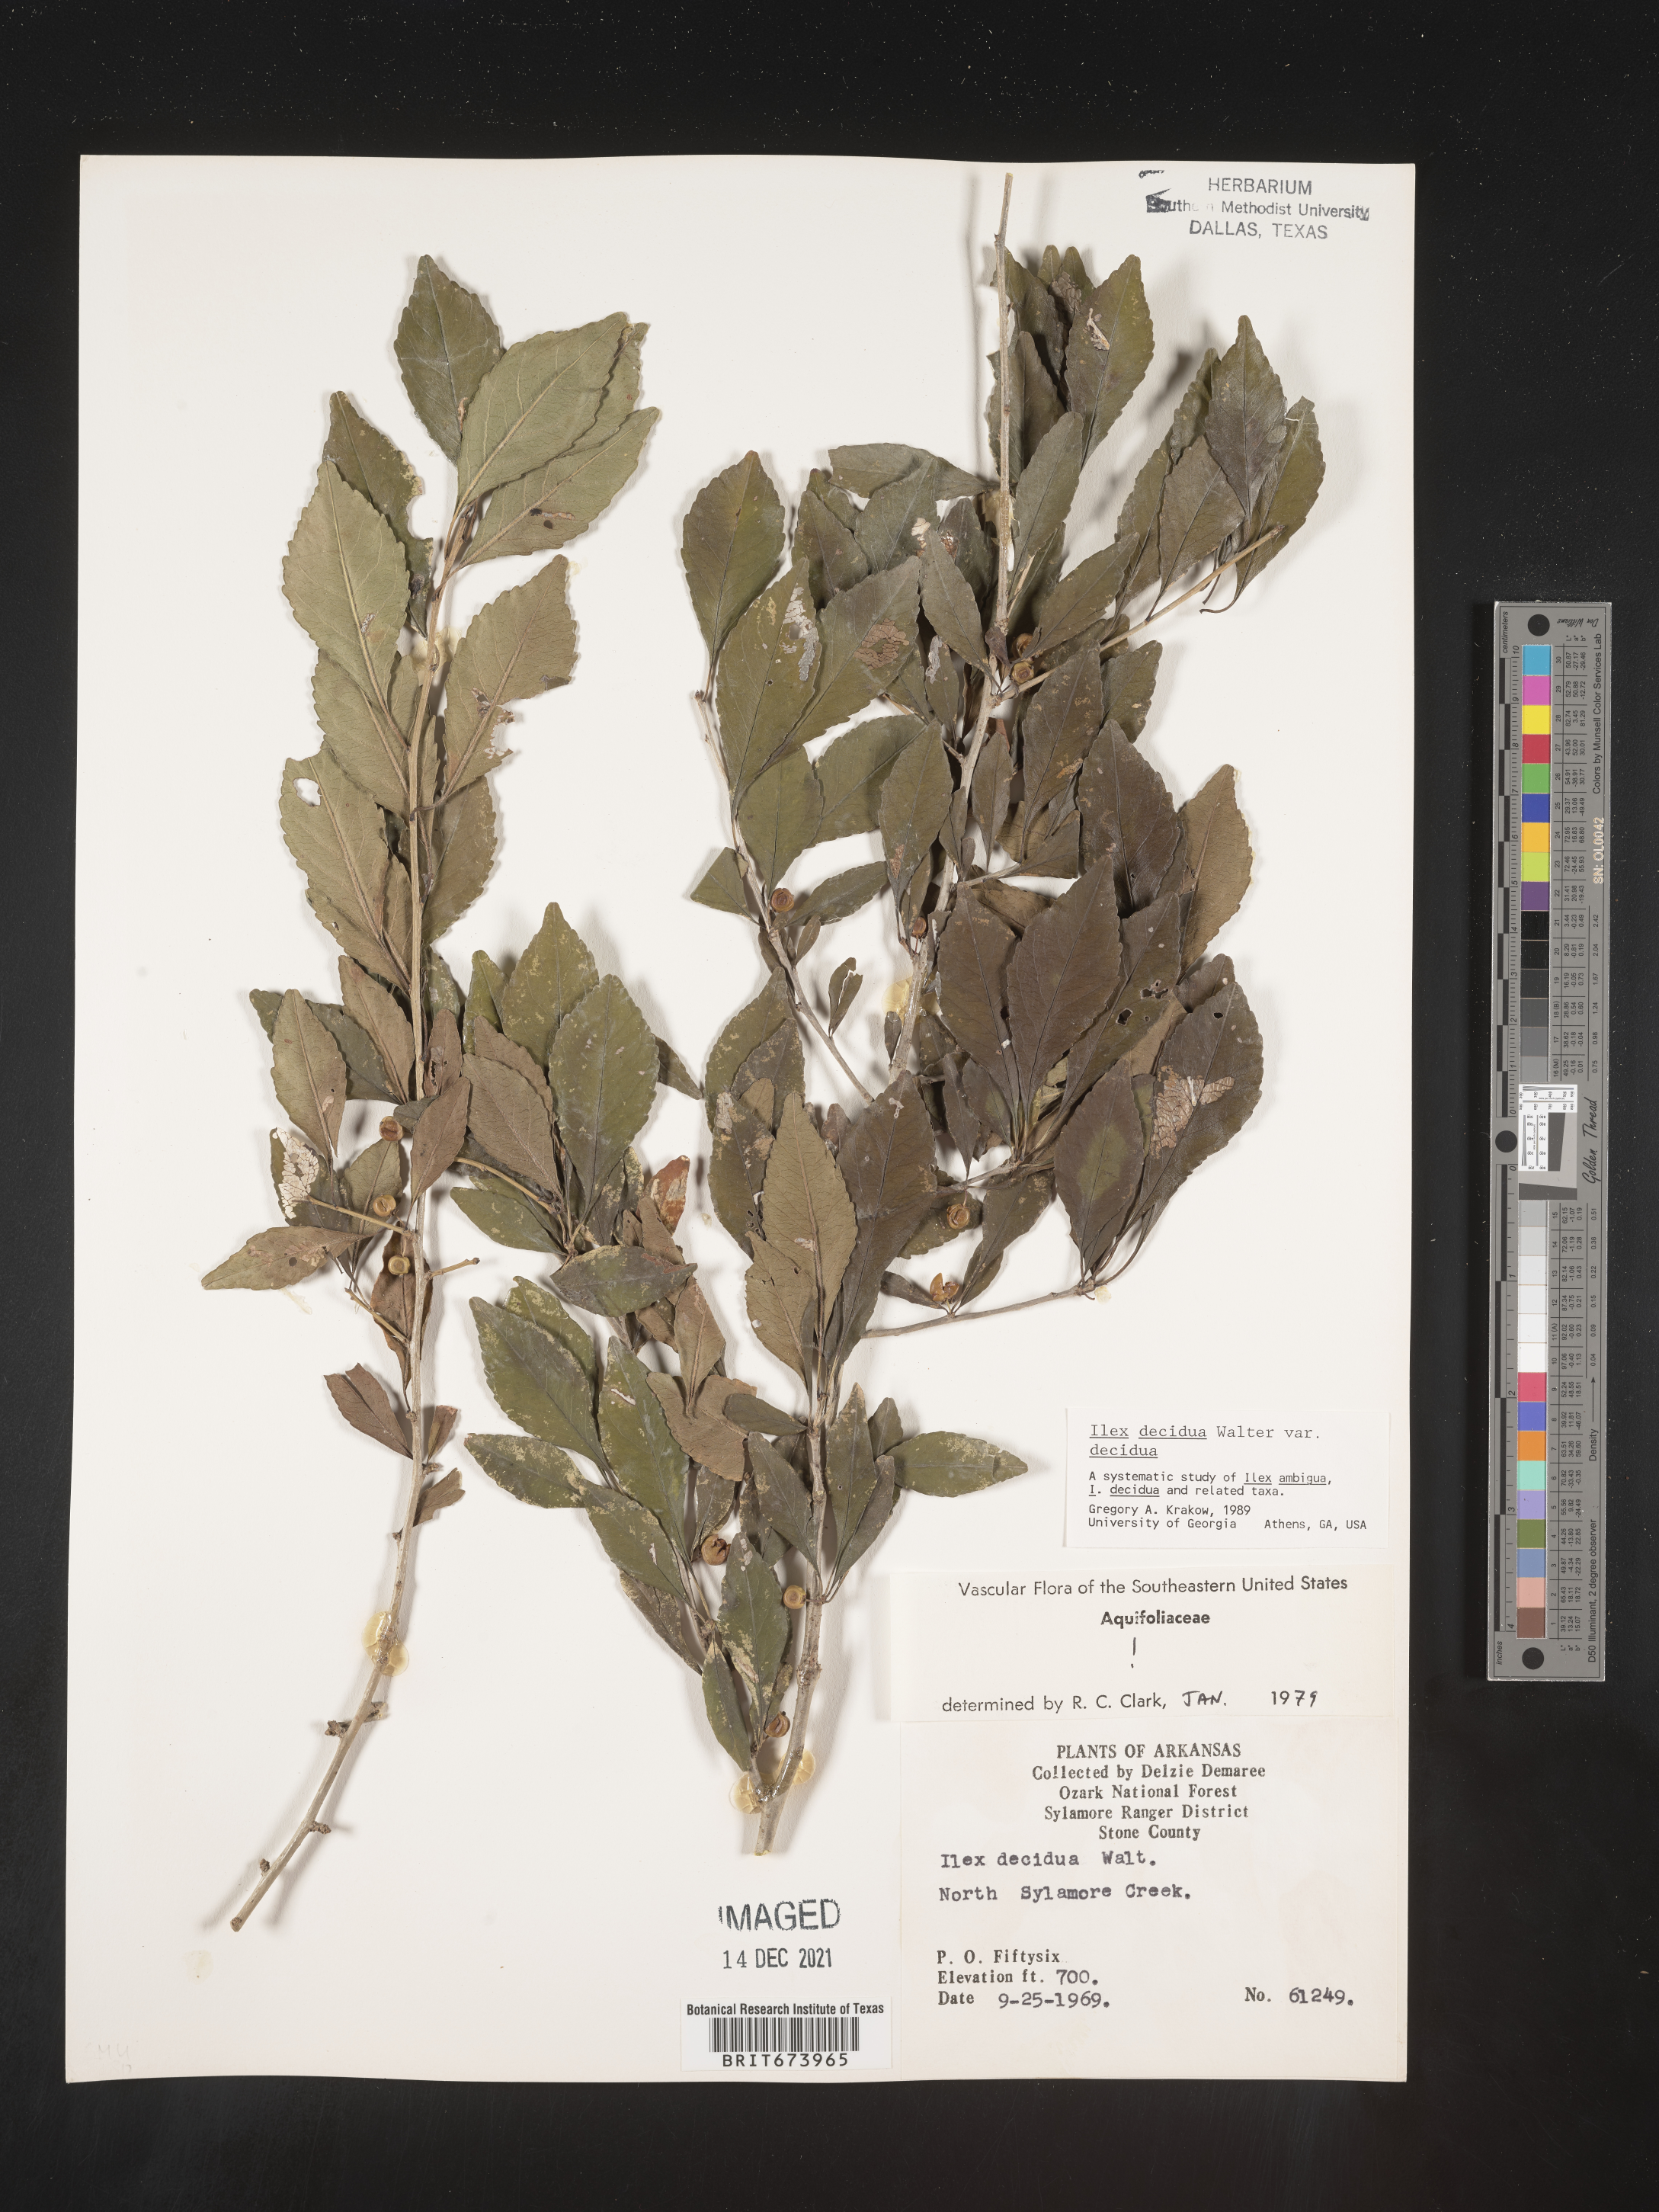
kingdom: Plantae
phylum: Tracheophyta
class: Magnoliopsida
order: Aquifoliales
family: Aquifoliaceae
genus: Ilex
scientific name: Ilex decidua
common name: Possum-haw
